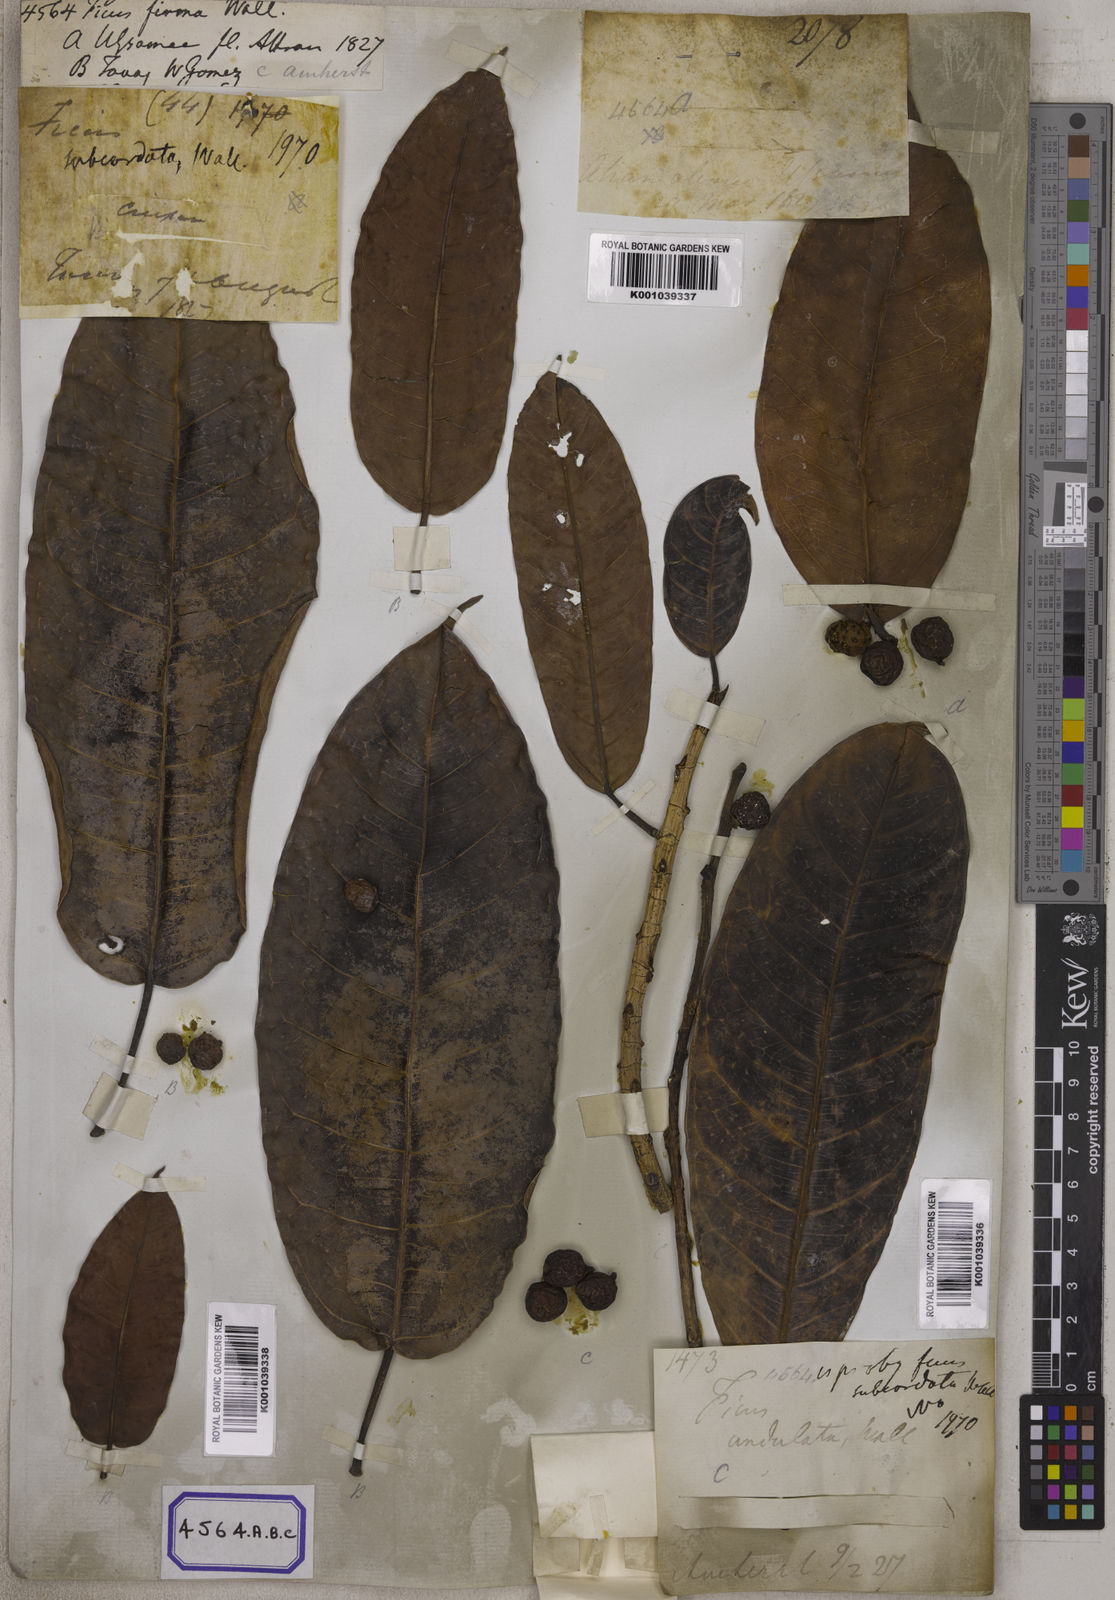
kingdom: Plantae
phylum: Tracheophyta
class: Magnoliopsida
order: Rosales
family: Moraceae
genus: Ficus
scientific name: Ficus
